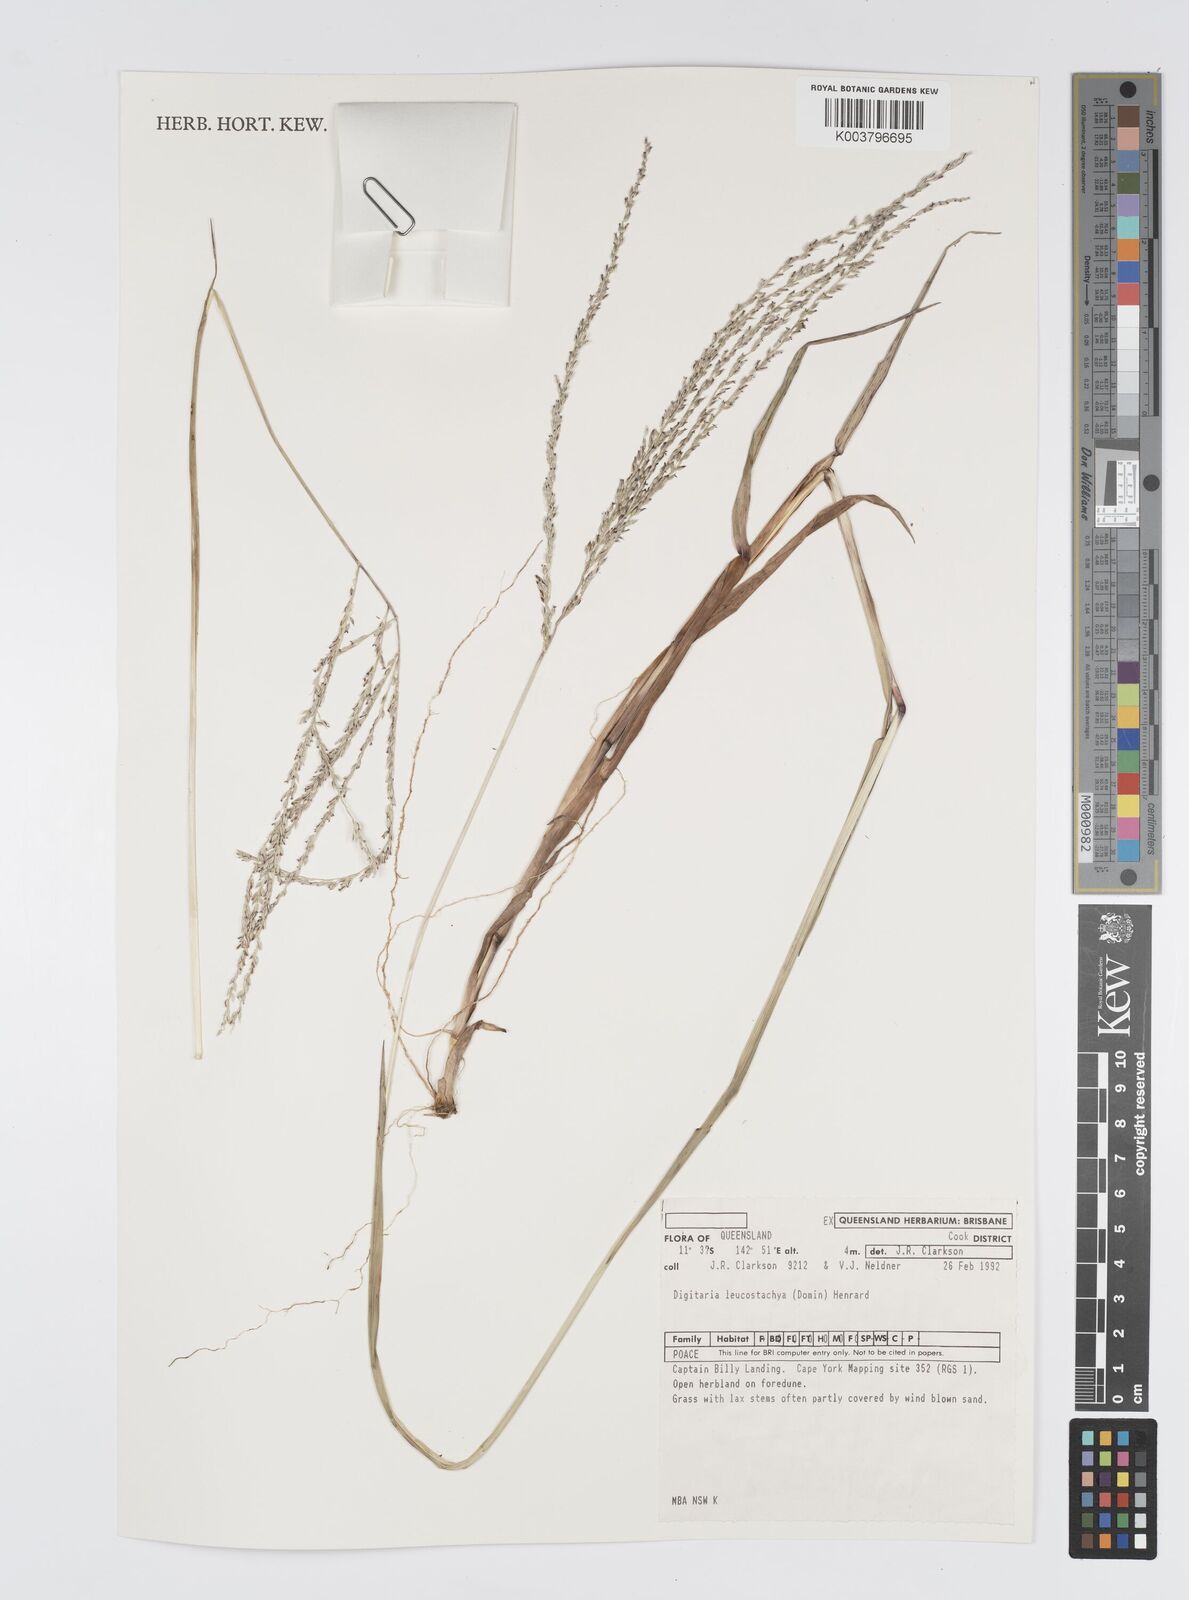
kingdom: Plantae
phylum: Tracheophyta
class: Liliopsida
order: Poales
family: Poaceae
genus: Digitaria
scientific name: Digitaria leucostachya
